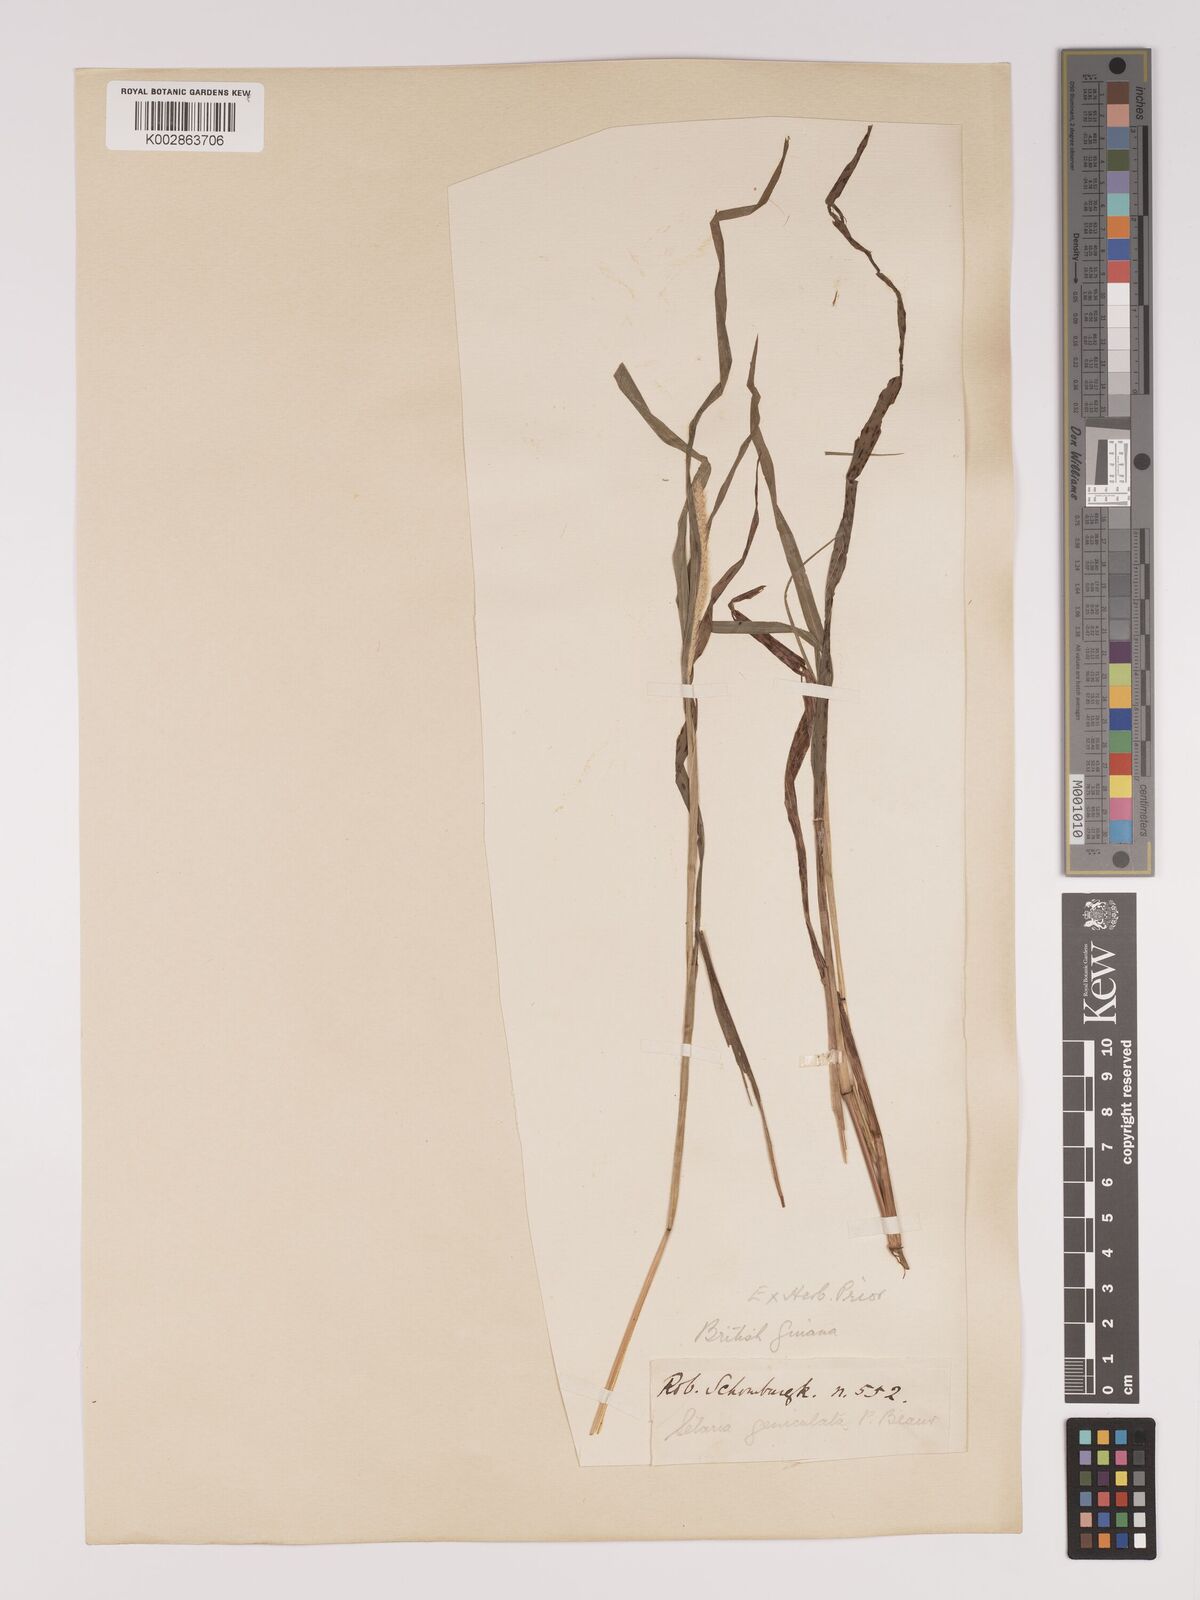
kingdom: Plantae
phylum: Tracheophyta
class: Liliopsida
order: Poales
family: Poaceae
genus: Setaria
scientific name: Setaria parviflora
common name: Knotroot bristle-grass
